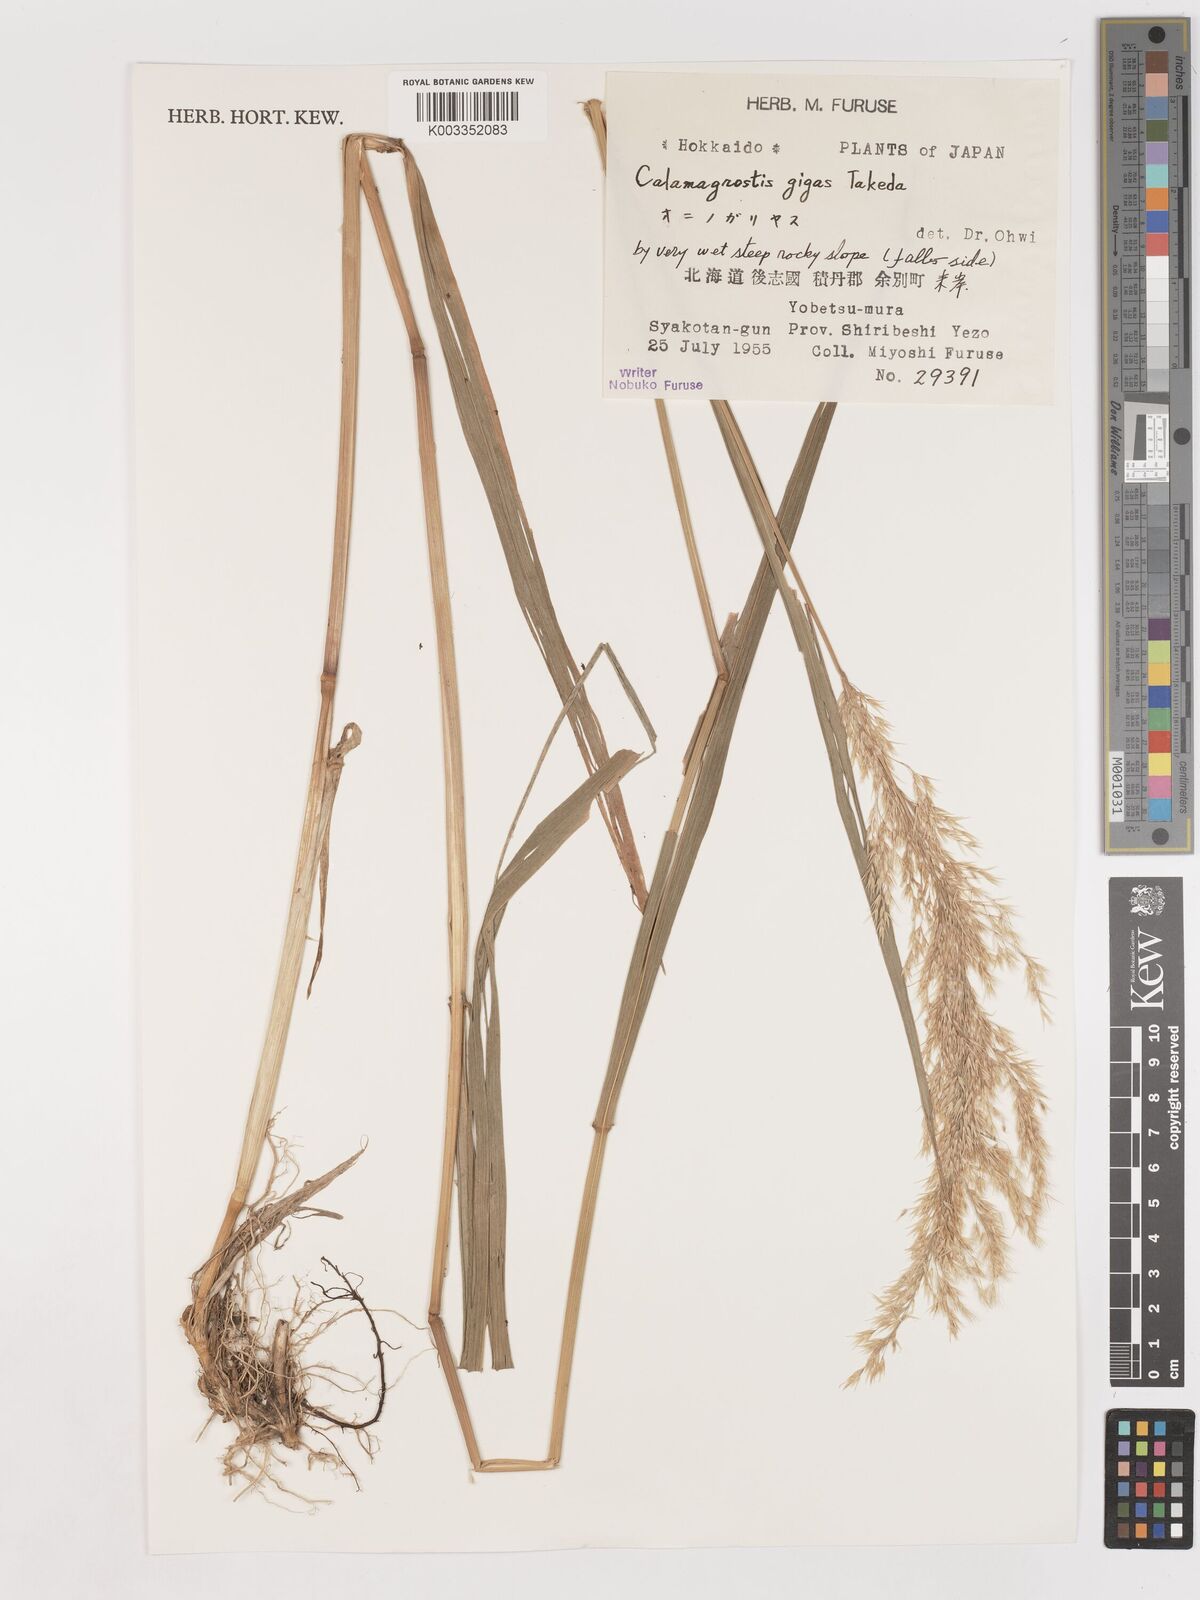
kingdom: Plantae
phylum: Tracheophyta
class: Liliopsida
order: Poales
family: Poaceae
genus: Calamagrostis
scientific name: Calamagrostis gigas
